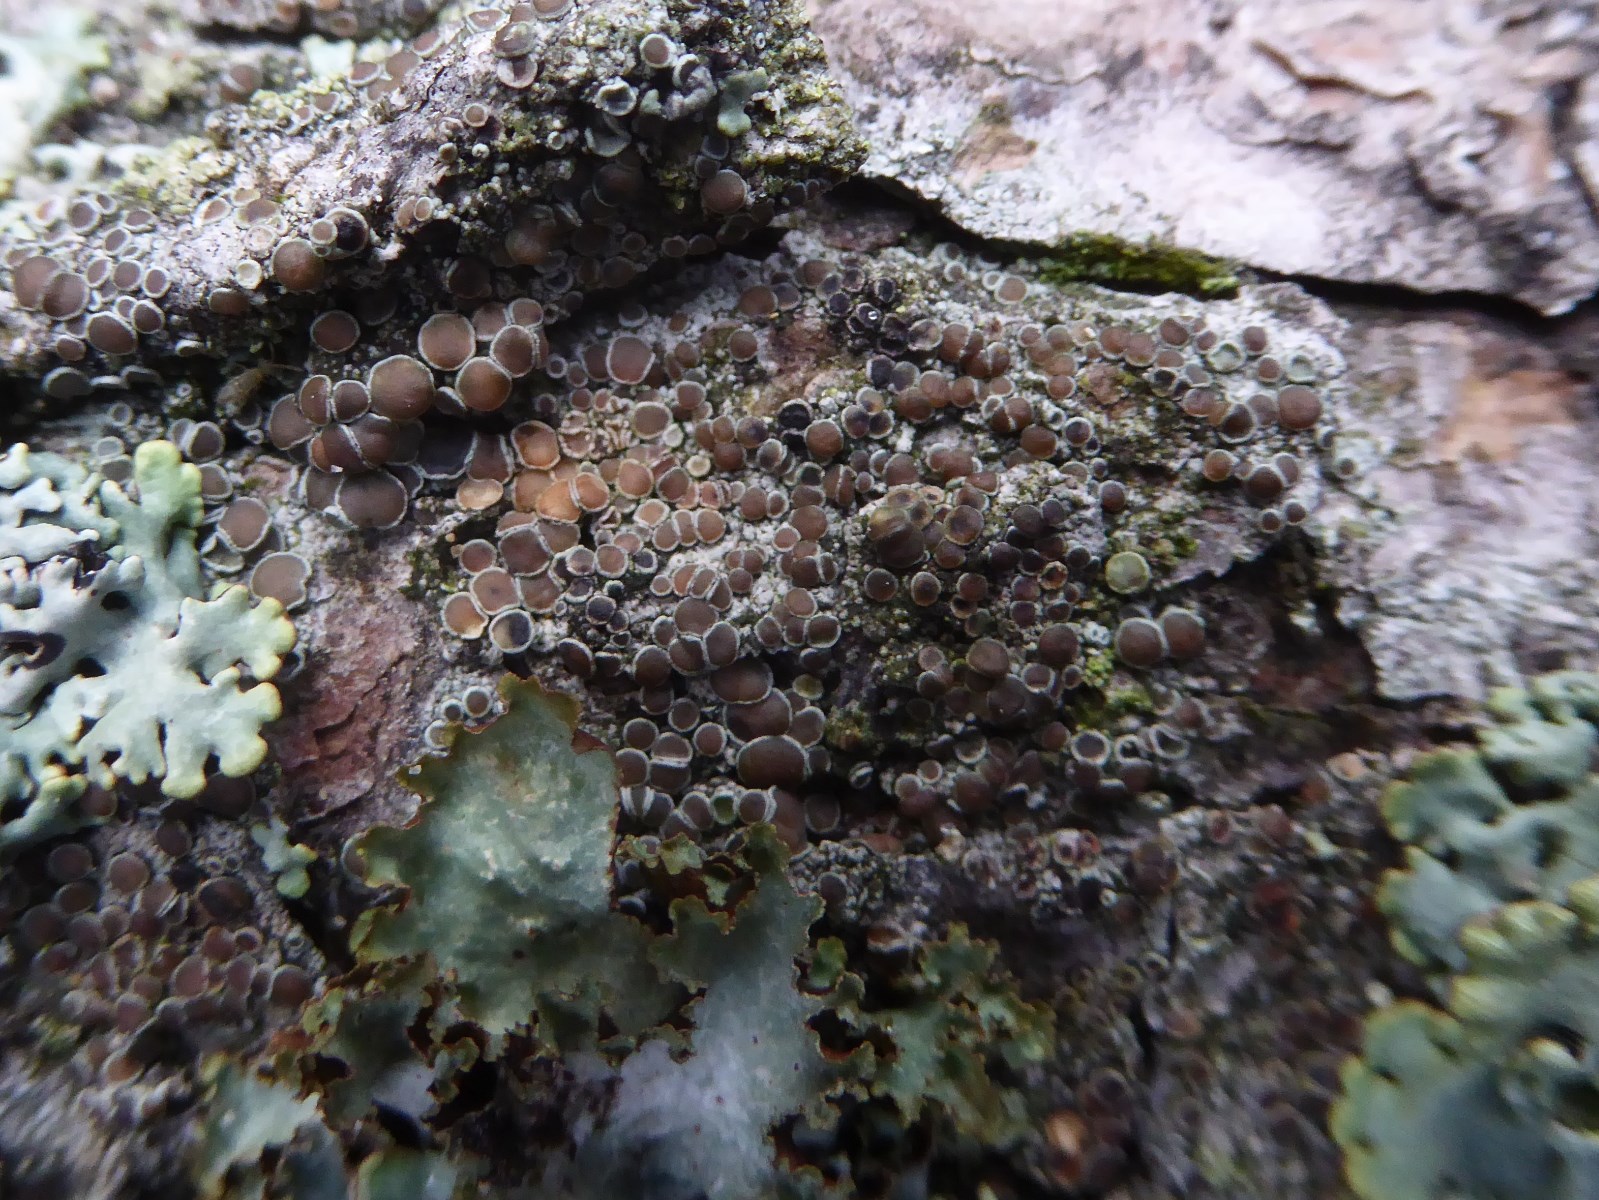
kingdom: Fungi
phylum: Ascomycota
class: Lecanoromycetes
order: Lecanorales
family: Lecanoraceae
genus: Lecanora
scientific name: Lecanora pulicaris
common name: almindelig kantskivelav
